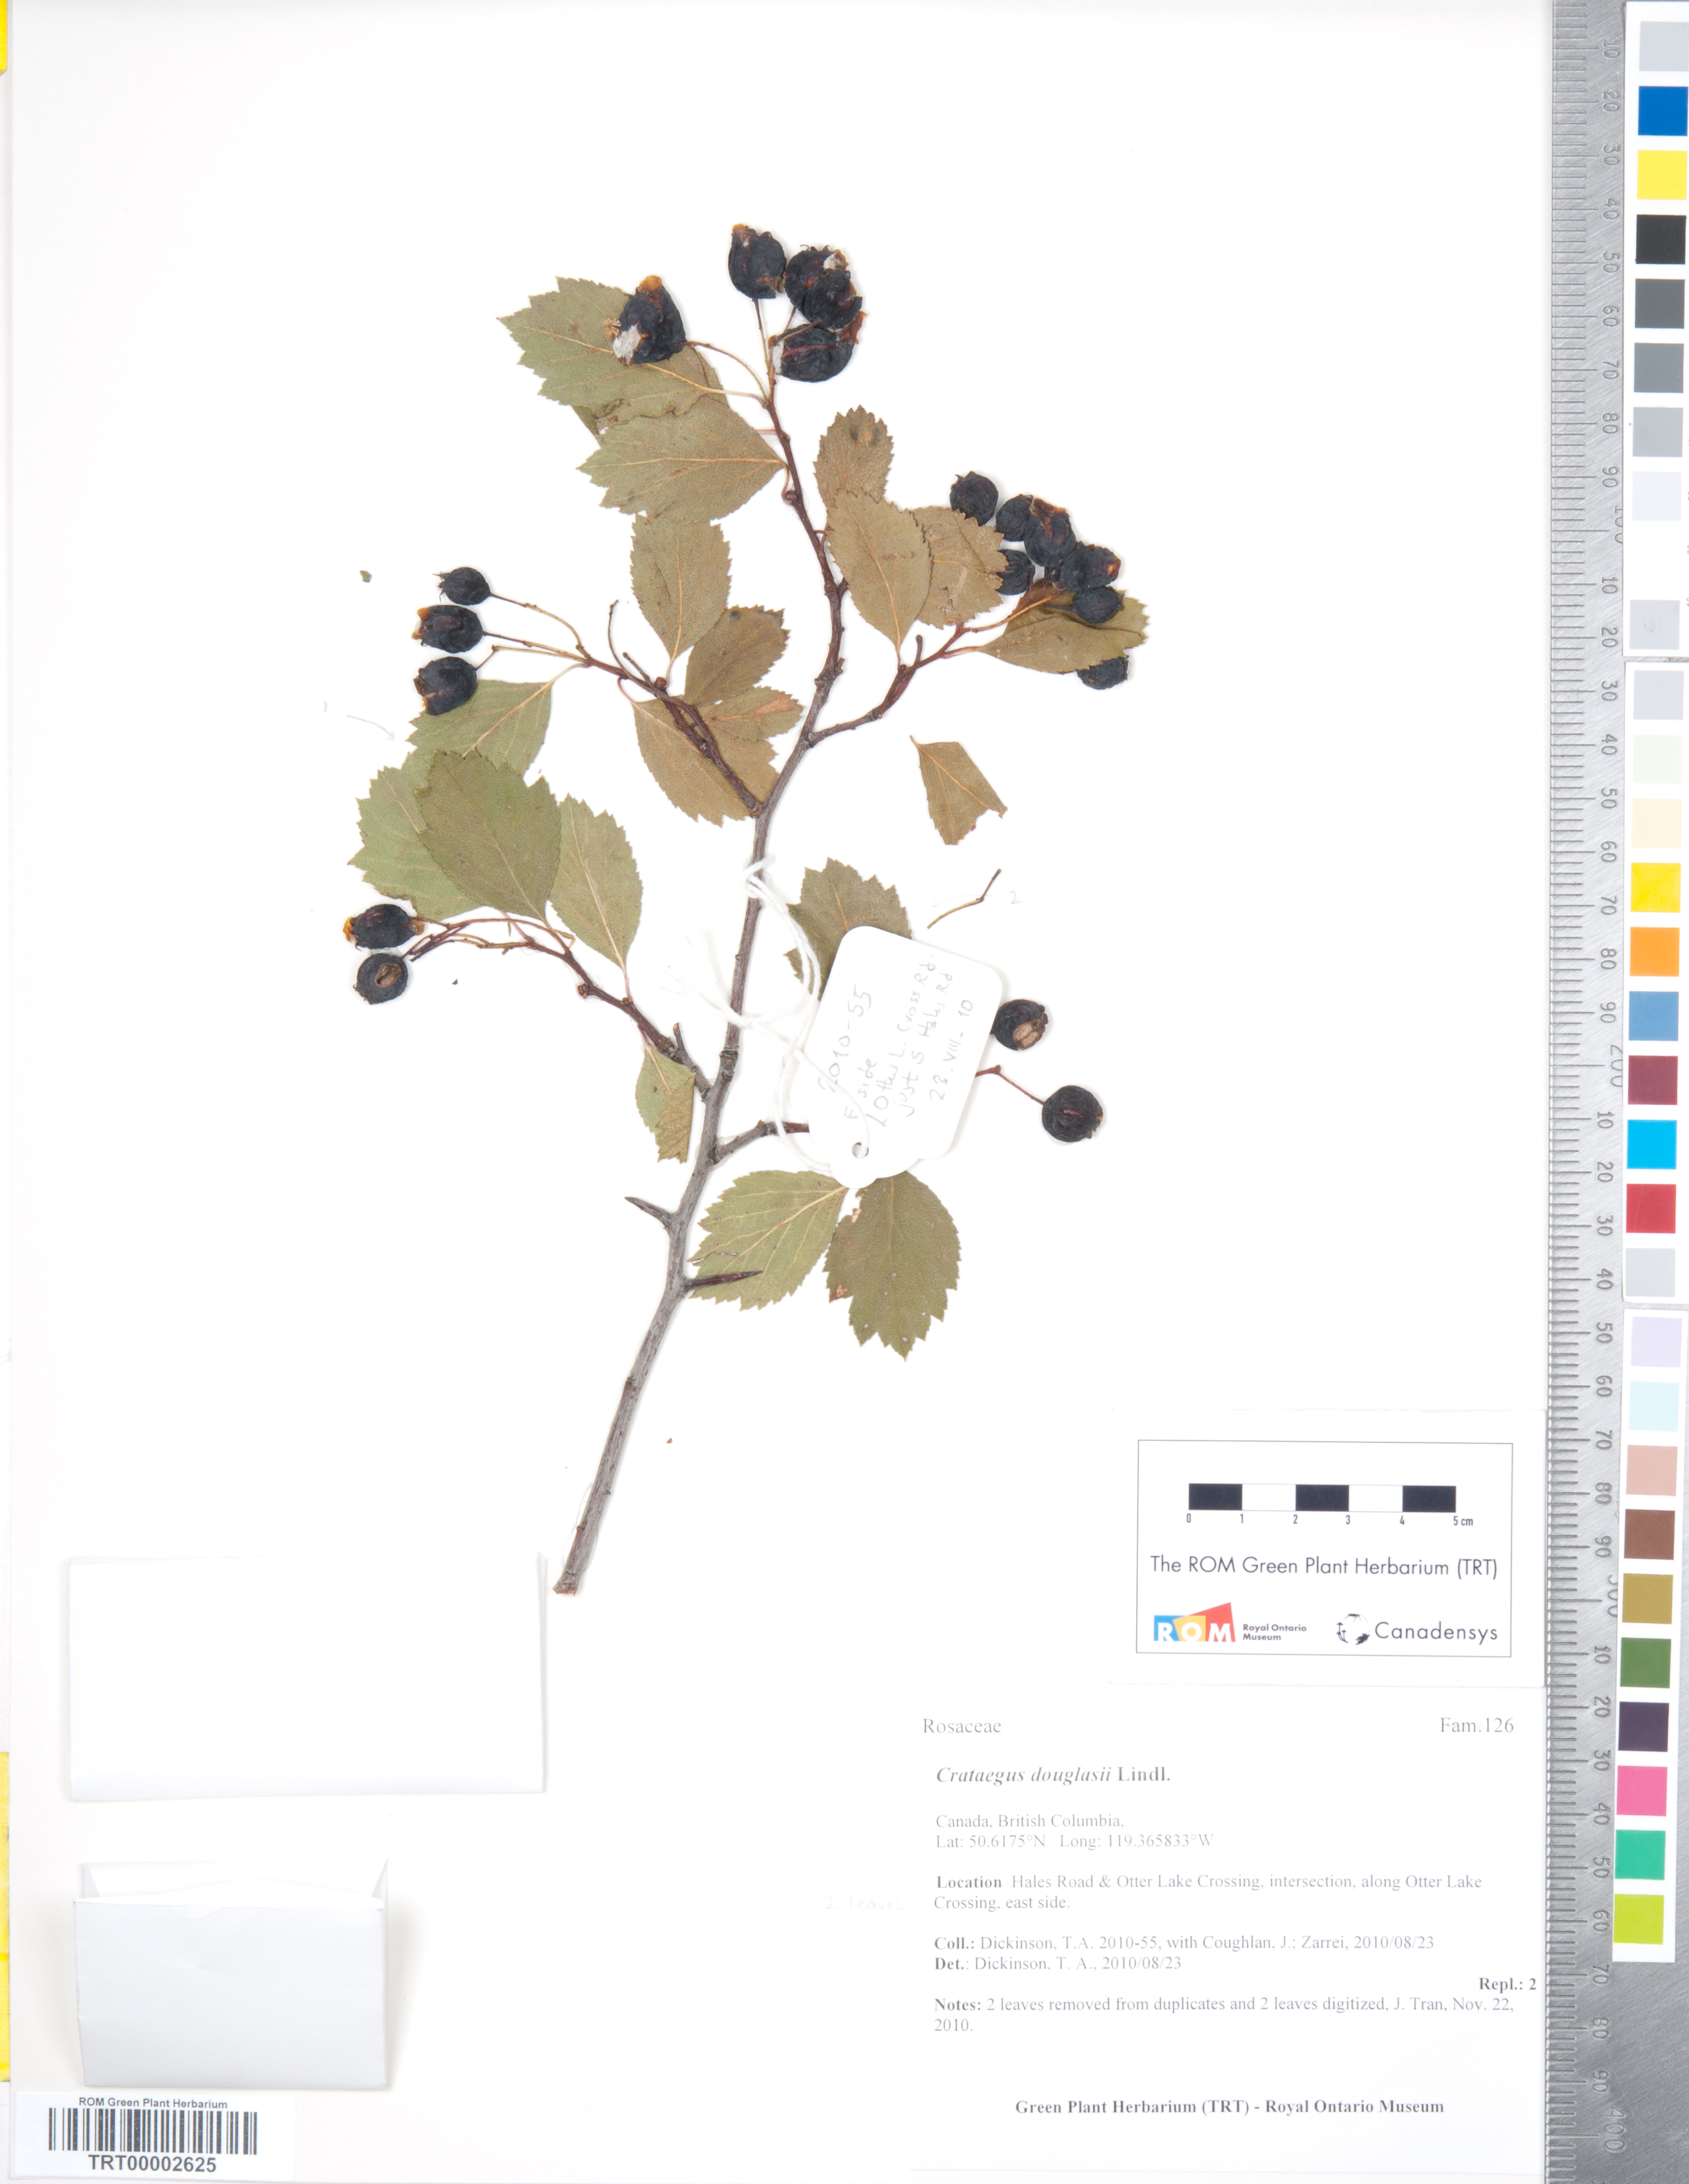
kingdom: Plantae
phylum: Tracheophyta
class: Magnoliopsida
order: Rosales
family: Rosaceae
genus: Crataegus
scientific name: Crataegus douglasii
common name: Black hawthorn
